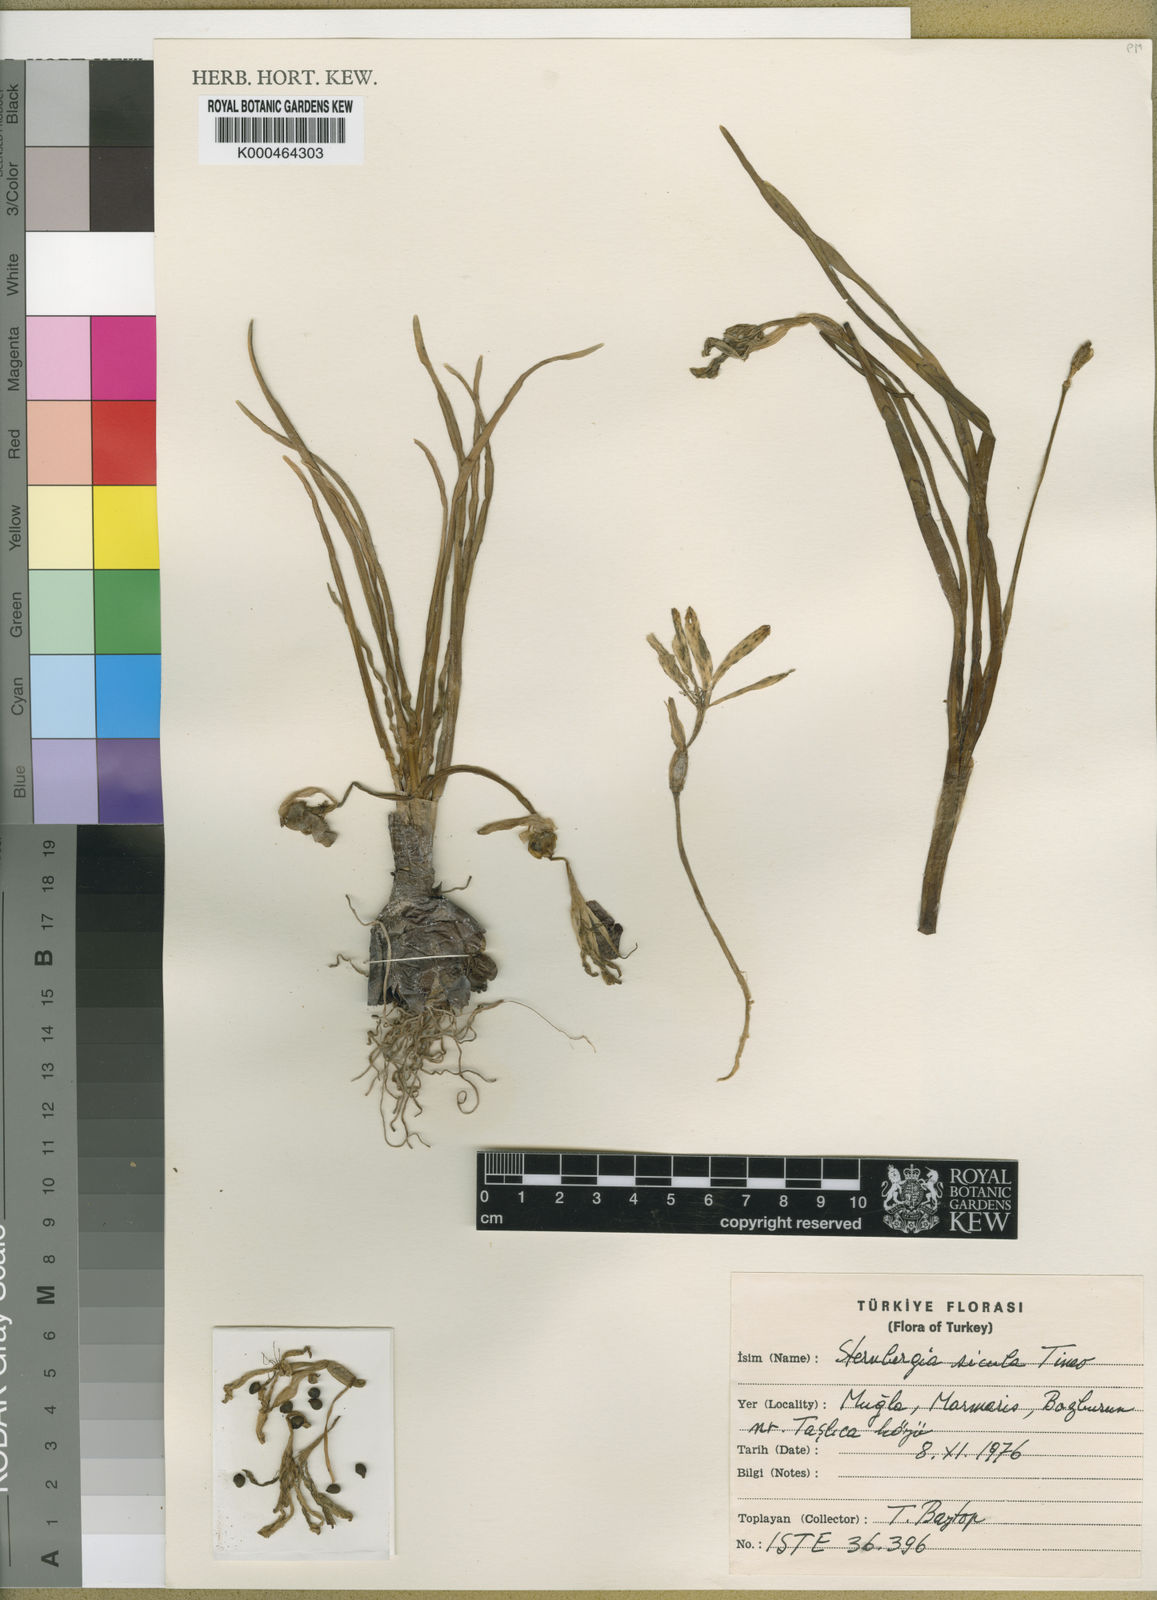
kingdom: Plantae
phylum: Tracheophyta
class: Liliopsida
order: Asparagales
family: Amaryllidaceae
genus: Sternbergia
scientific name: Sternbergia
